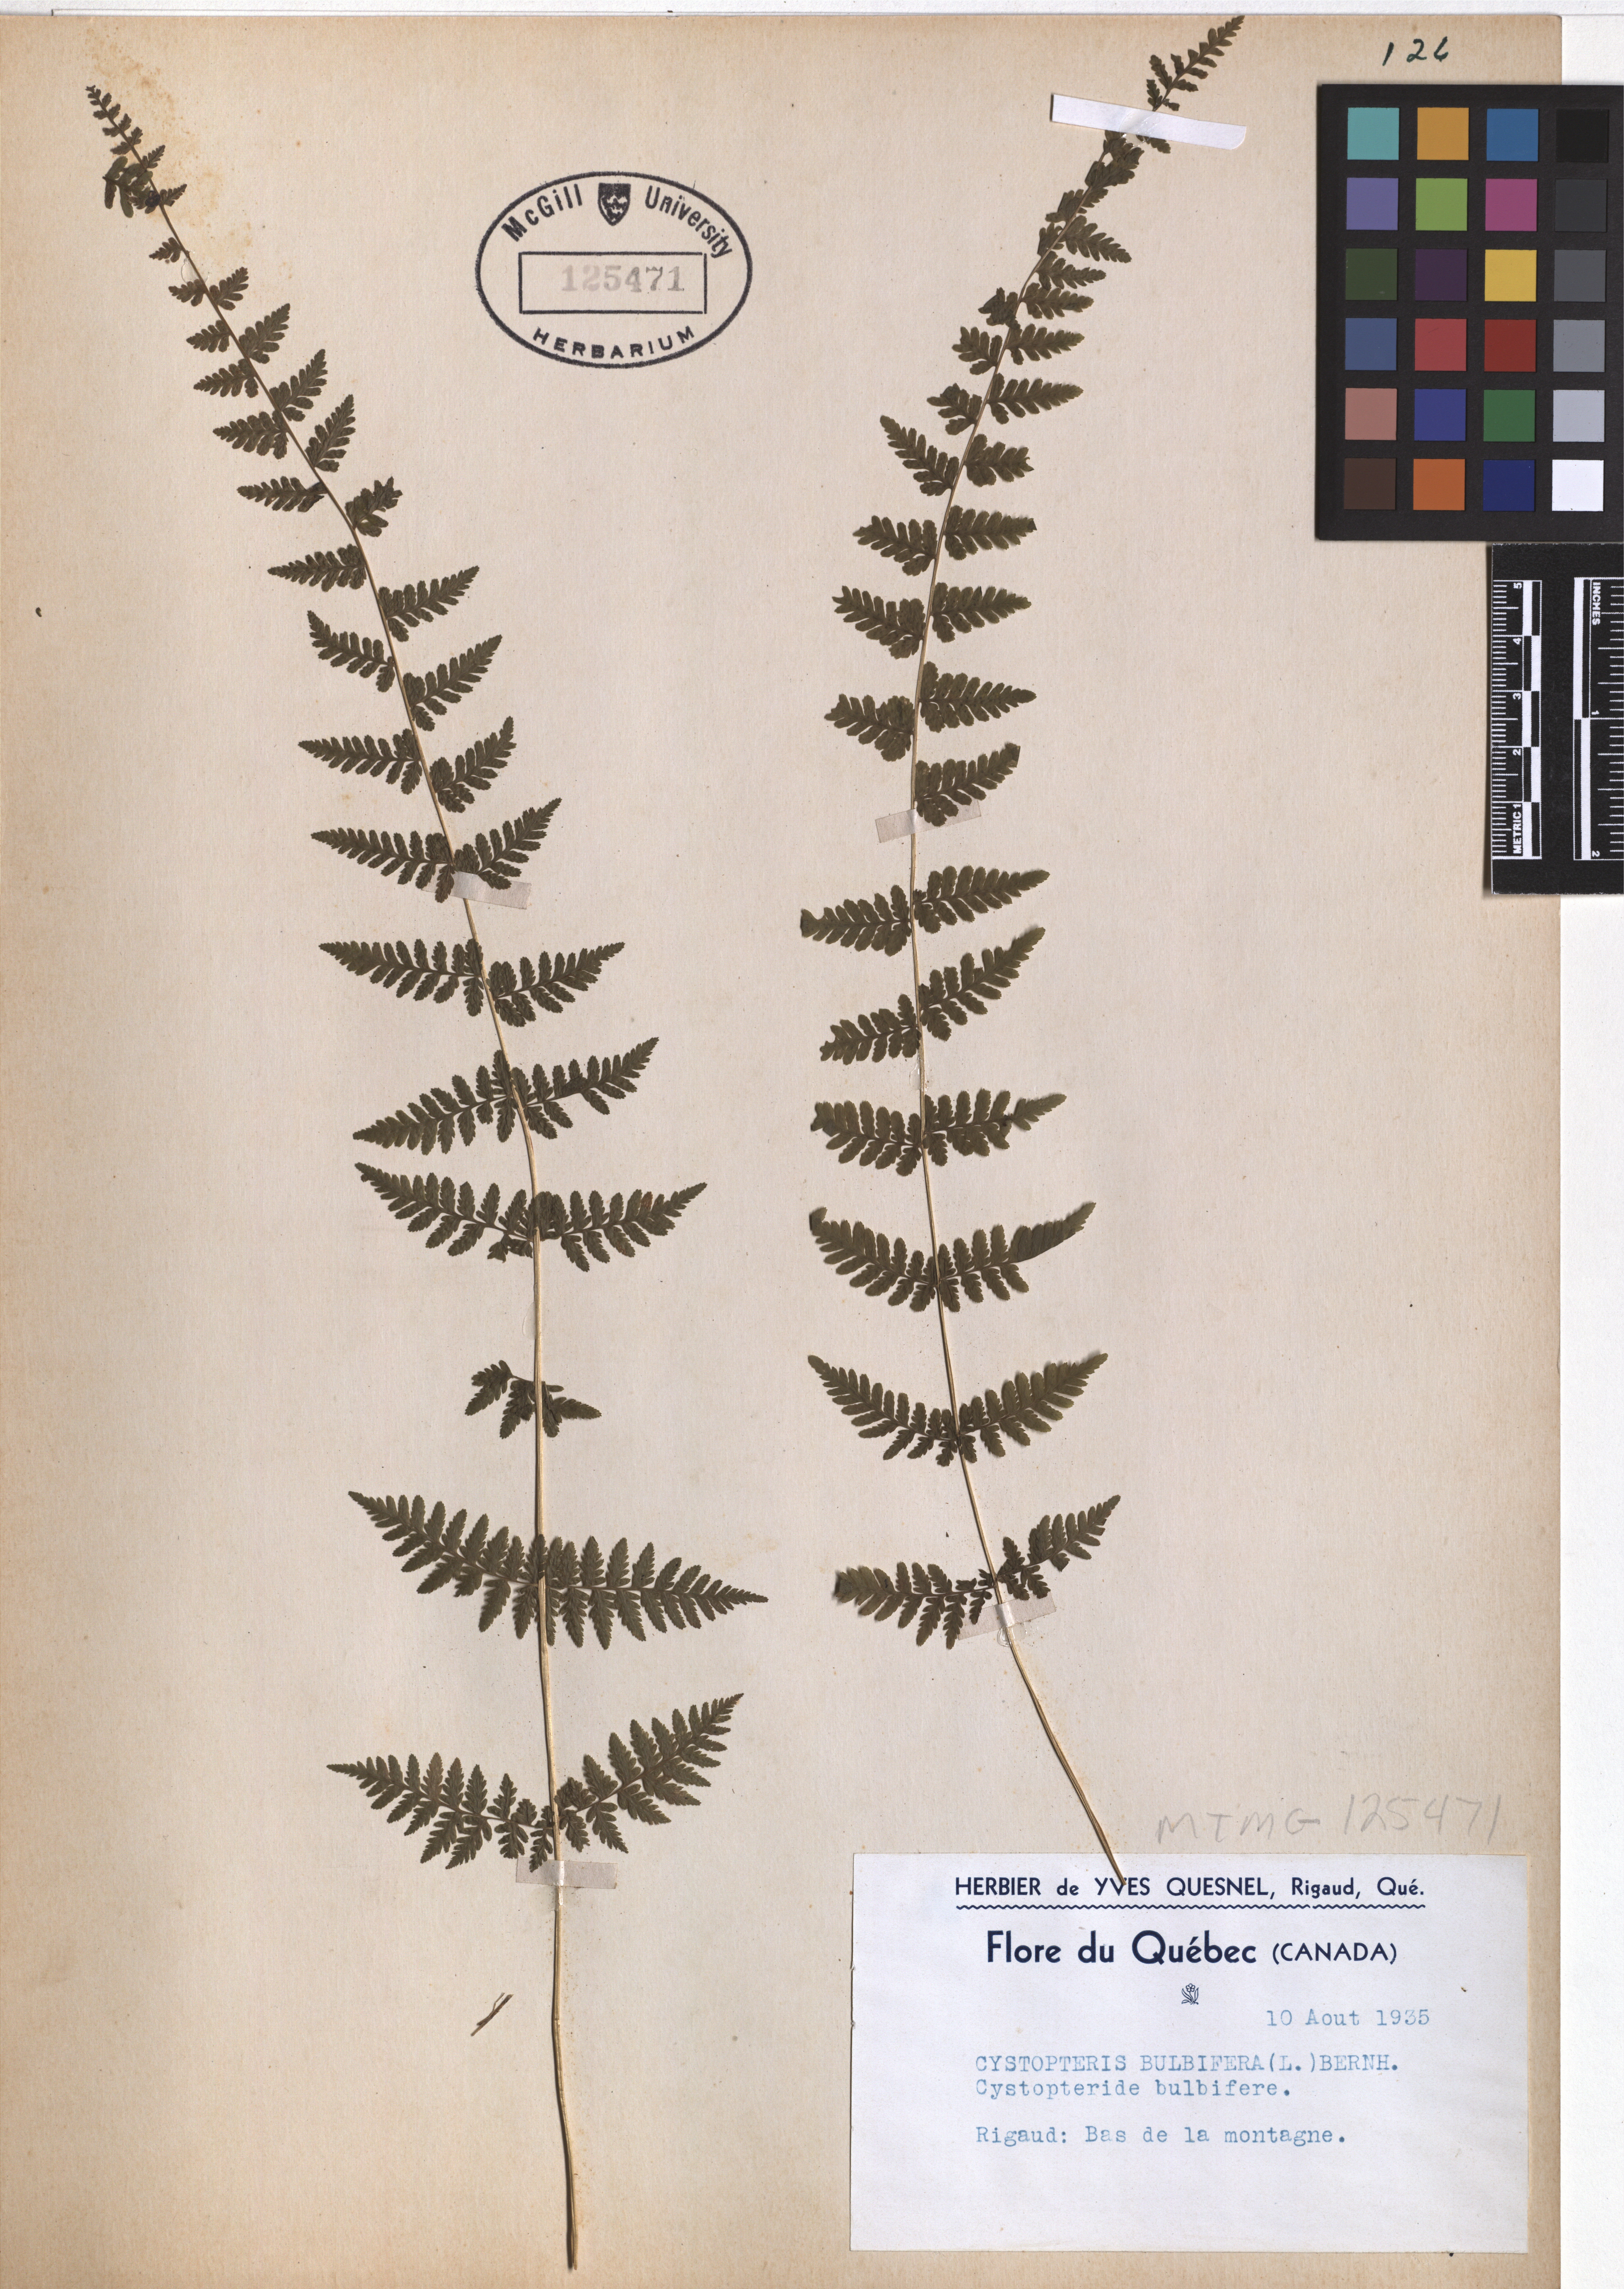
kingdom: Plantae
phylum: Tracheophyta
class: Polypodiopsida
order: Polypodiales
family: Cystopteridaceae
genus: Cystopteris
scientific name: Cystopteris bulbifera
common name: Bulblet bladder fern
